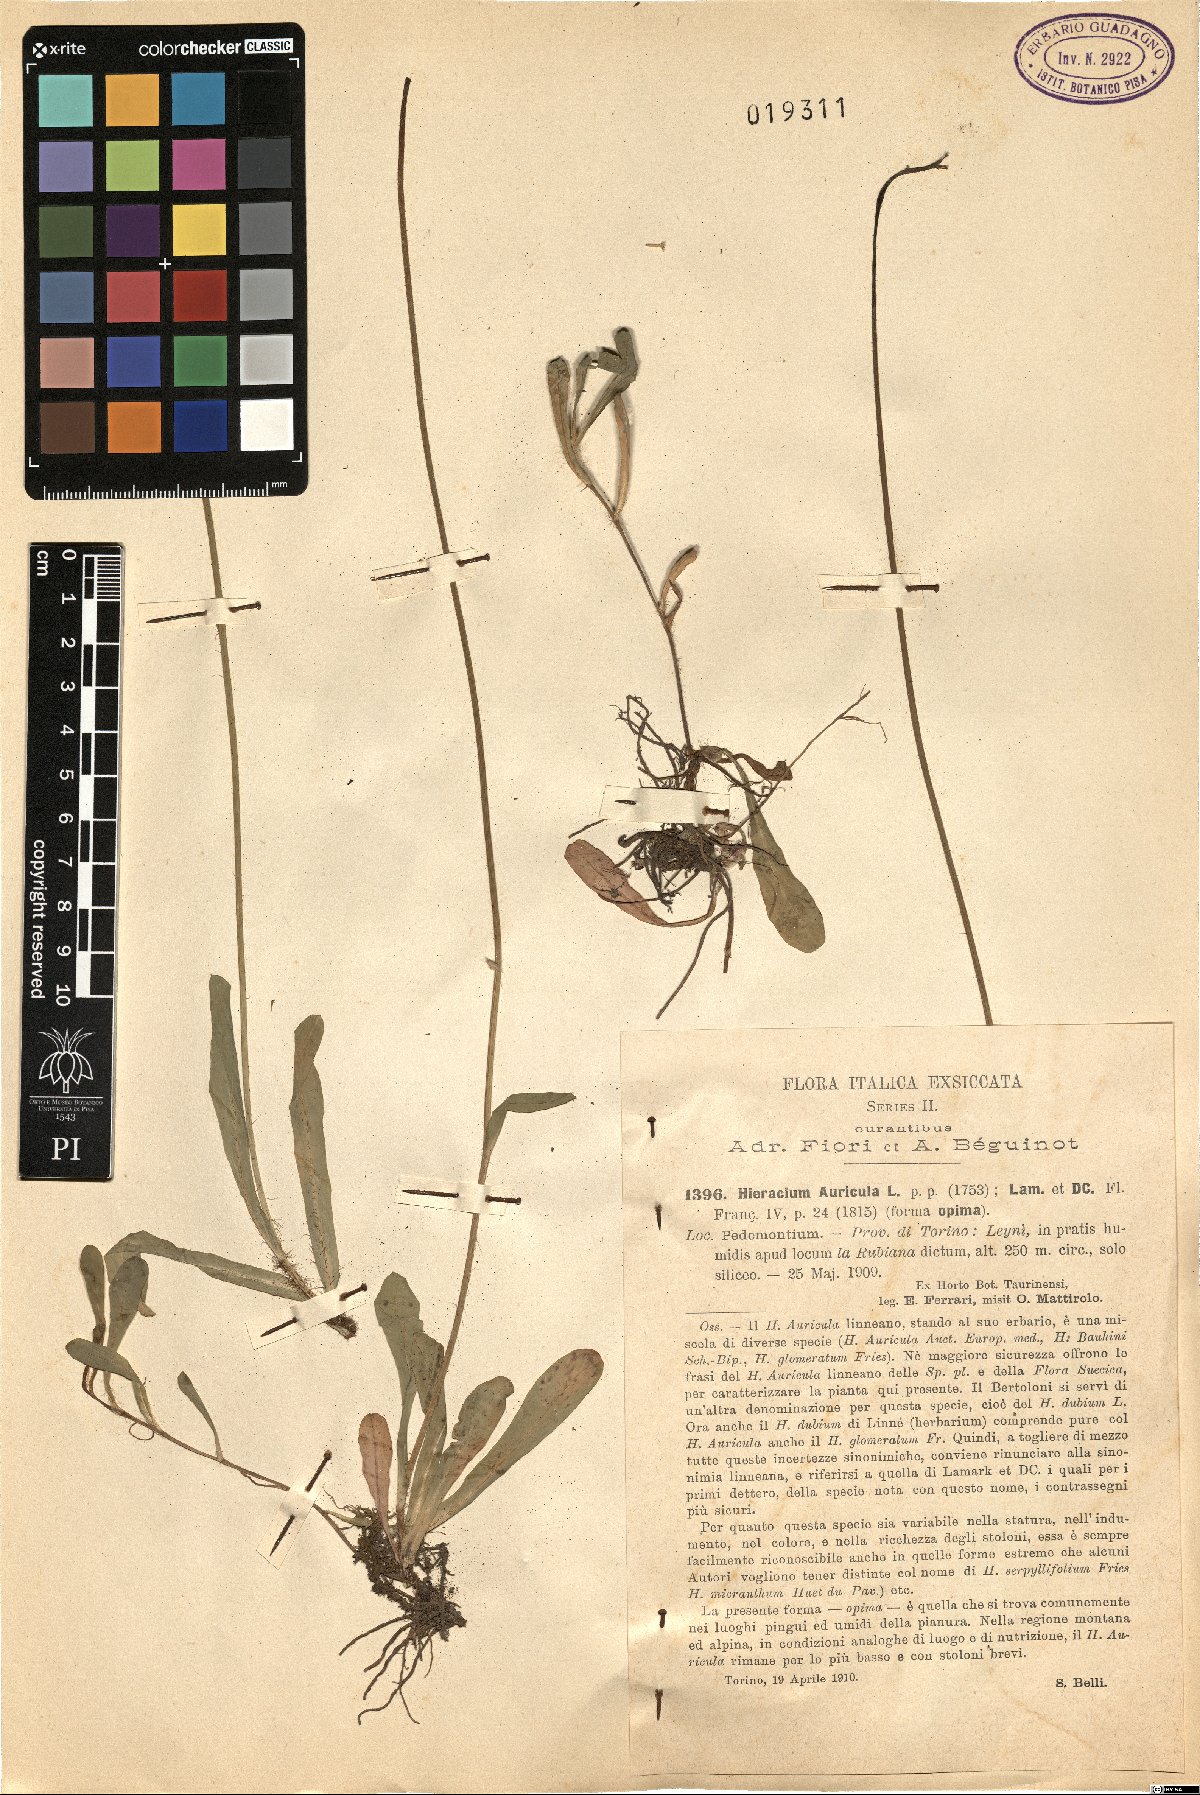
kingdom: Plantae
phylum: Tracheophyta
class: Magnoliopsida
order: Asterales
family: Asteraceae
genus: Pilosella
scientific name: Pilosella floribunda
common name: Glaucous hawkweed
